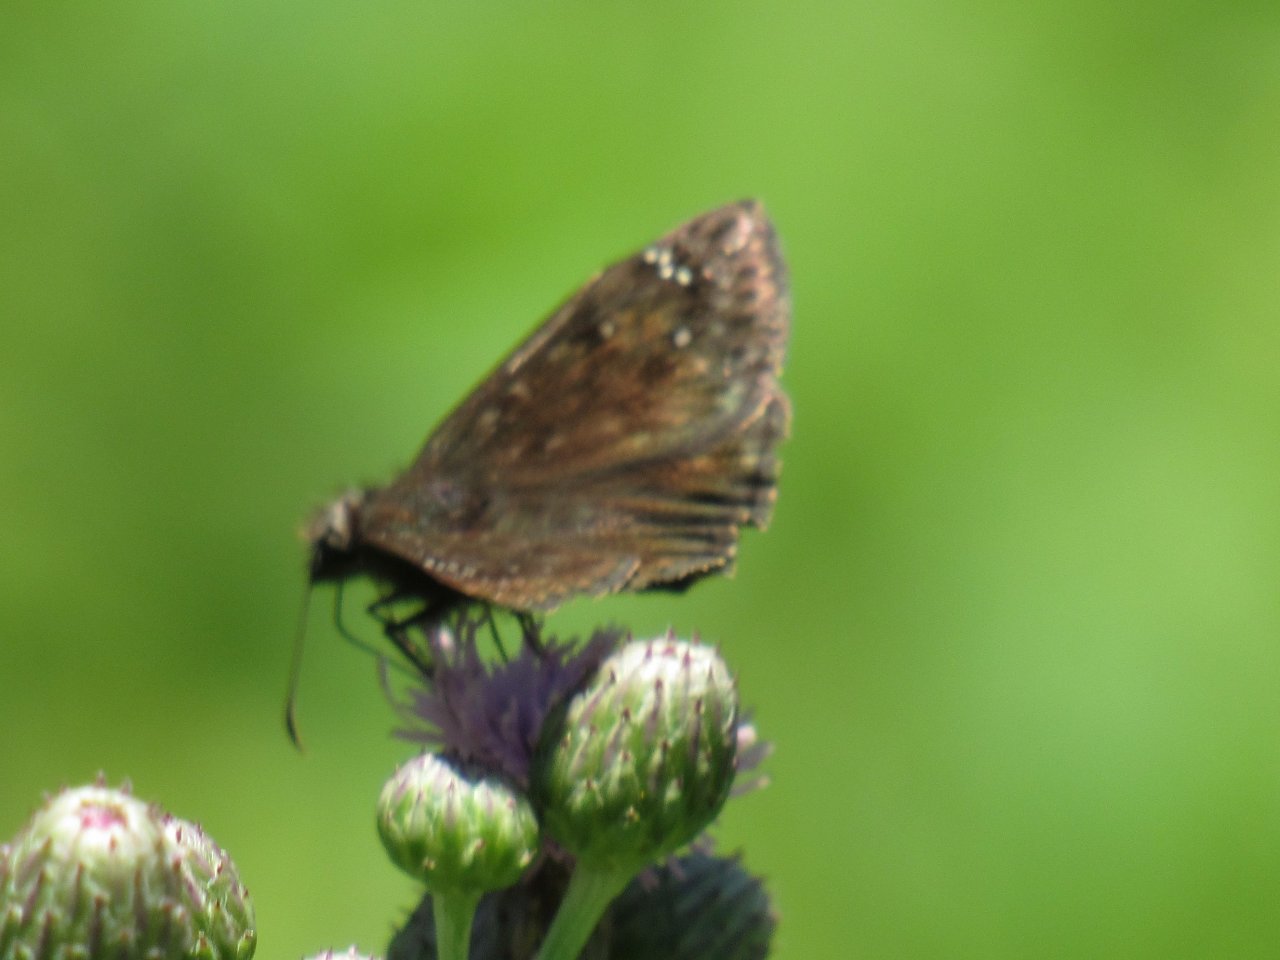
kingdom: Animalia
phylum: Arthropoda
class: Insecta
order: Lepidoptera
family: Hesperiidae
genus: Gesta
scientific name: Gesta
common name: Horace's Duskywing
